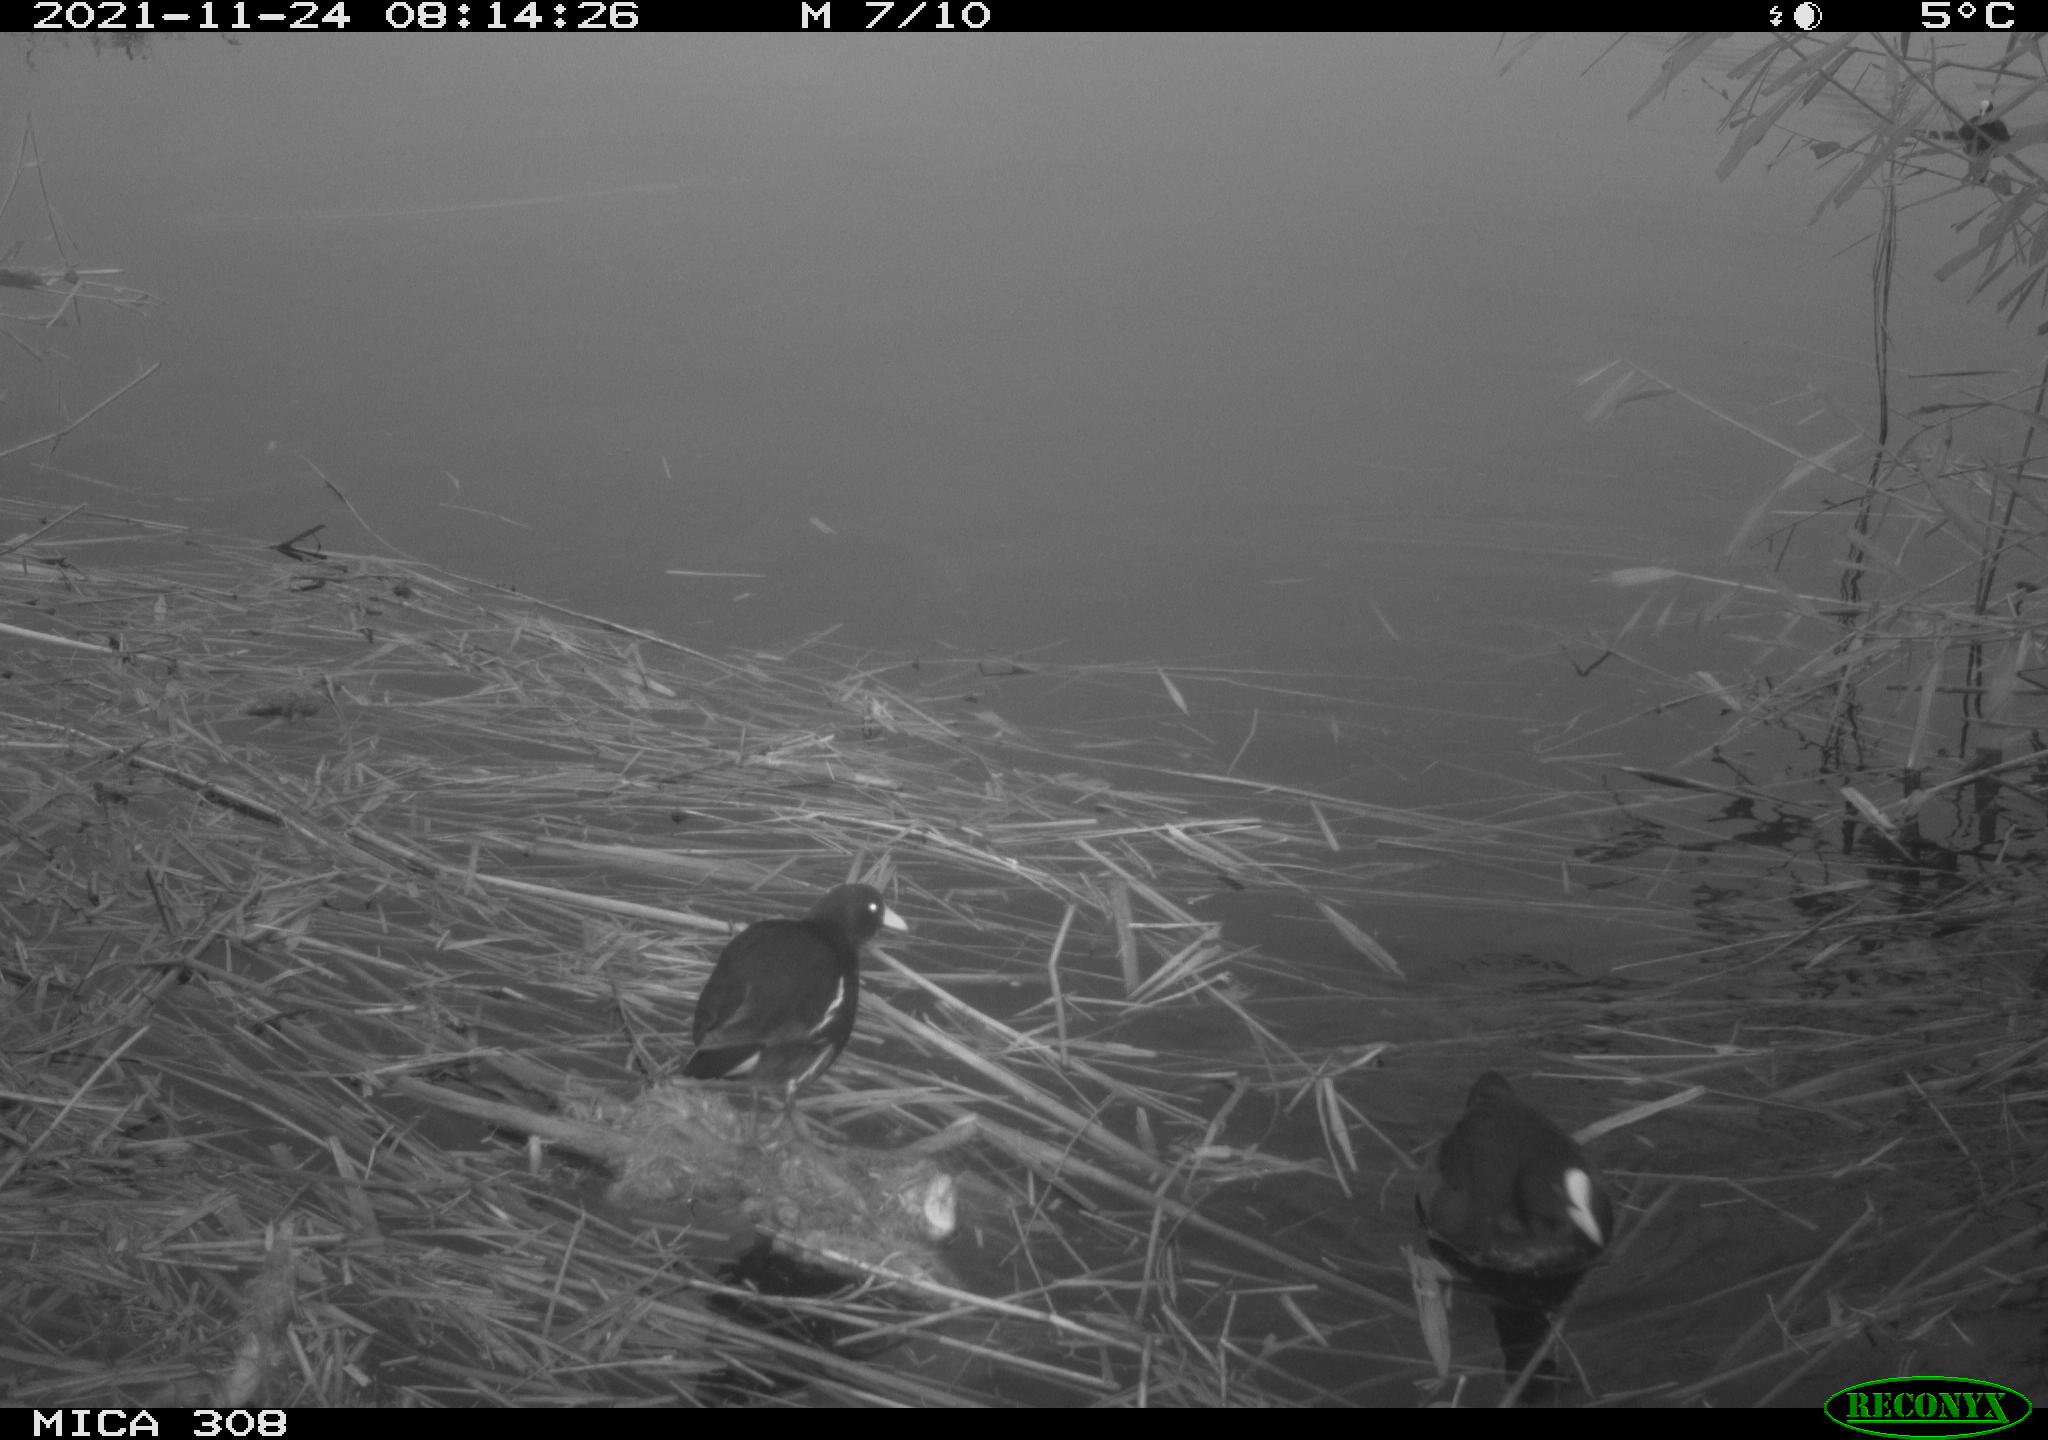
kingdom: Animalia
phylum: Chordata
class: Aves
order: Gruiformes
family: Rallidae
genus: Gallinula
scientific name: Gallinula chloropus
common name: Common moorhen
